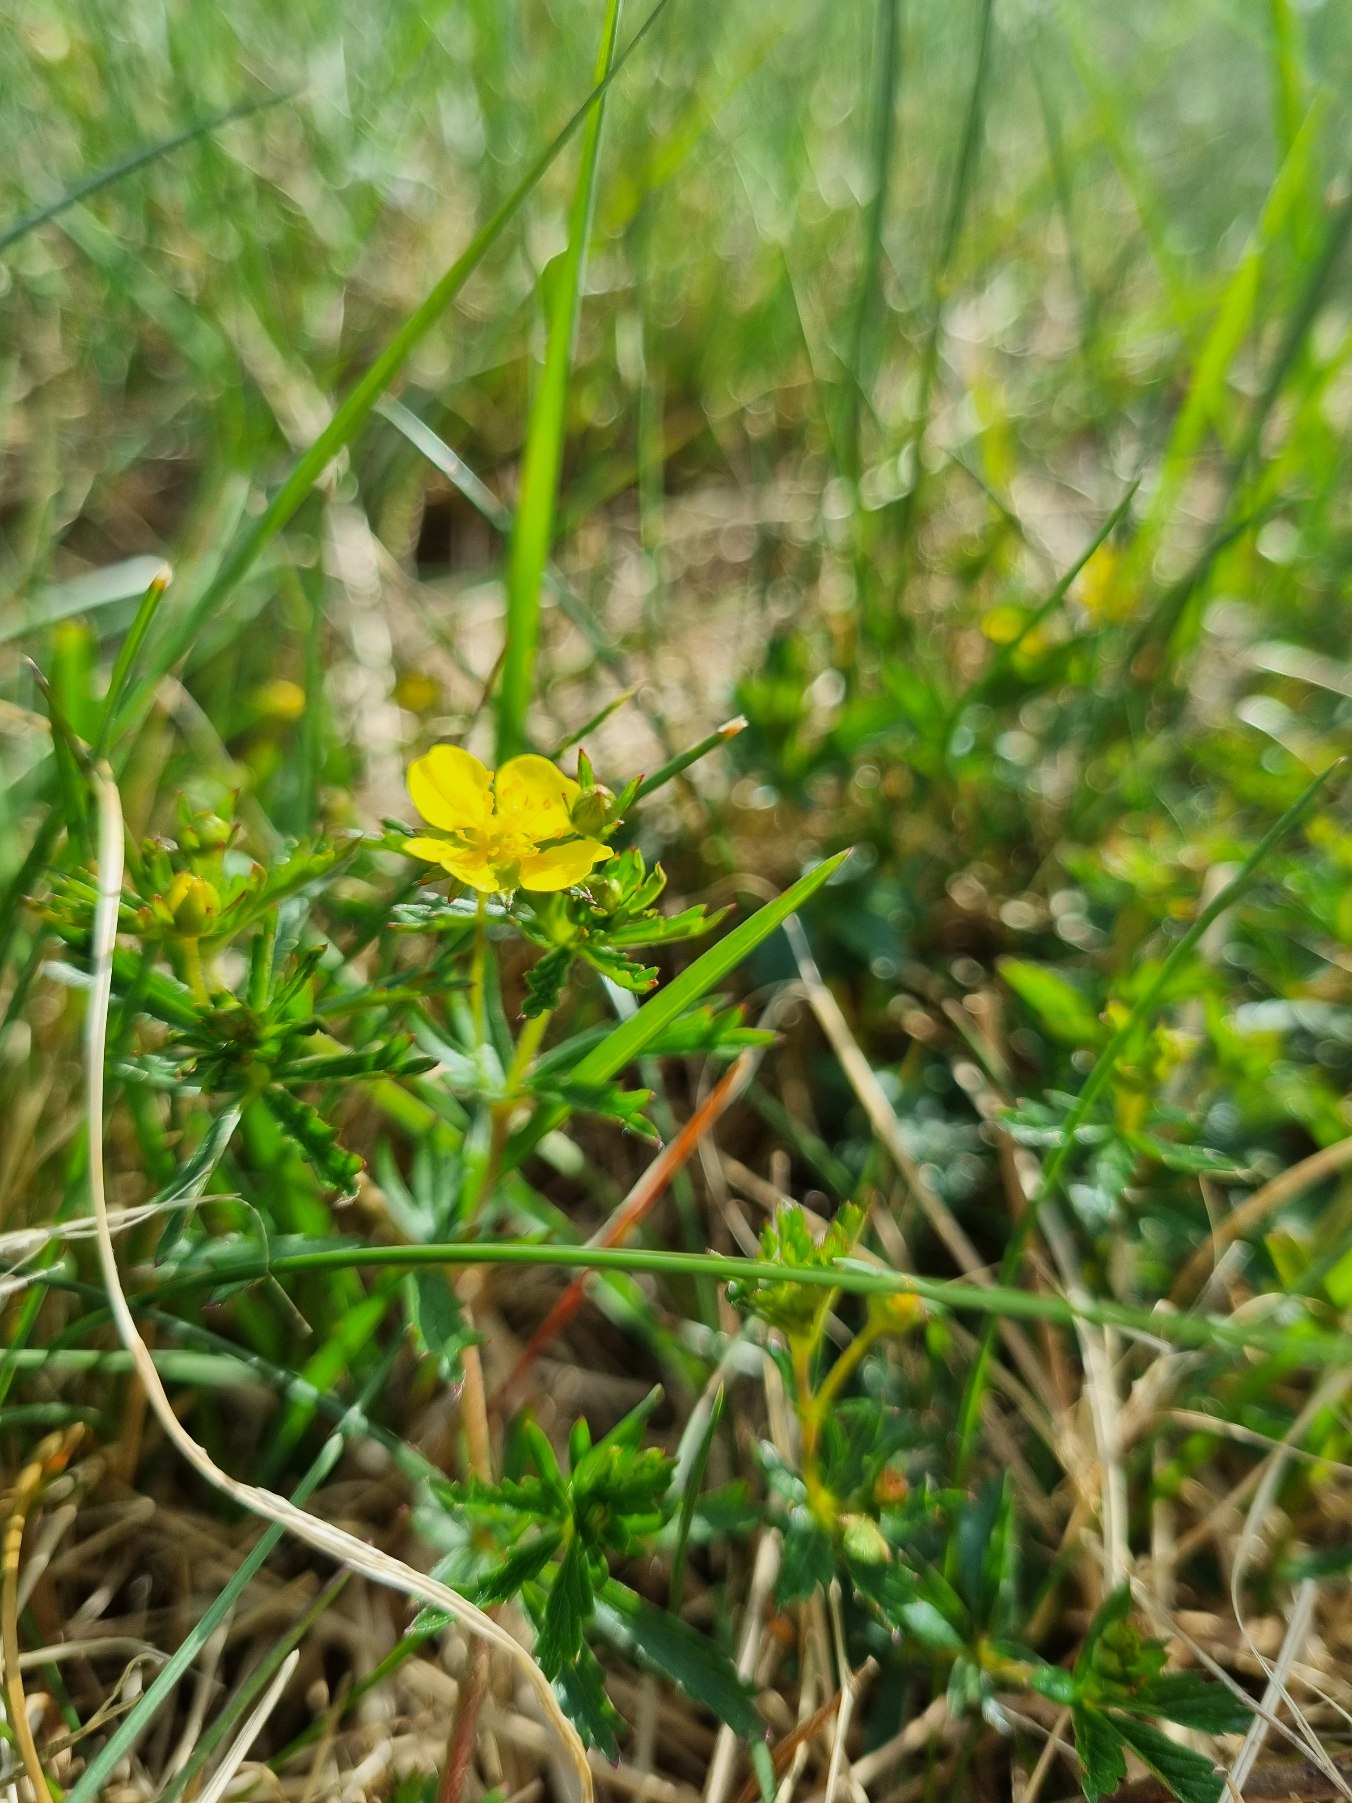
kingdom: Plantae
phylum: Tracheophyta
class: Magnoliopsida
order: Rosales
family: Rosaceae
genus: Potentilla
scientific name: Potentilla erecta
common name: Tormentil
